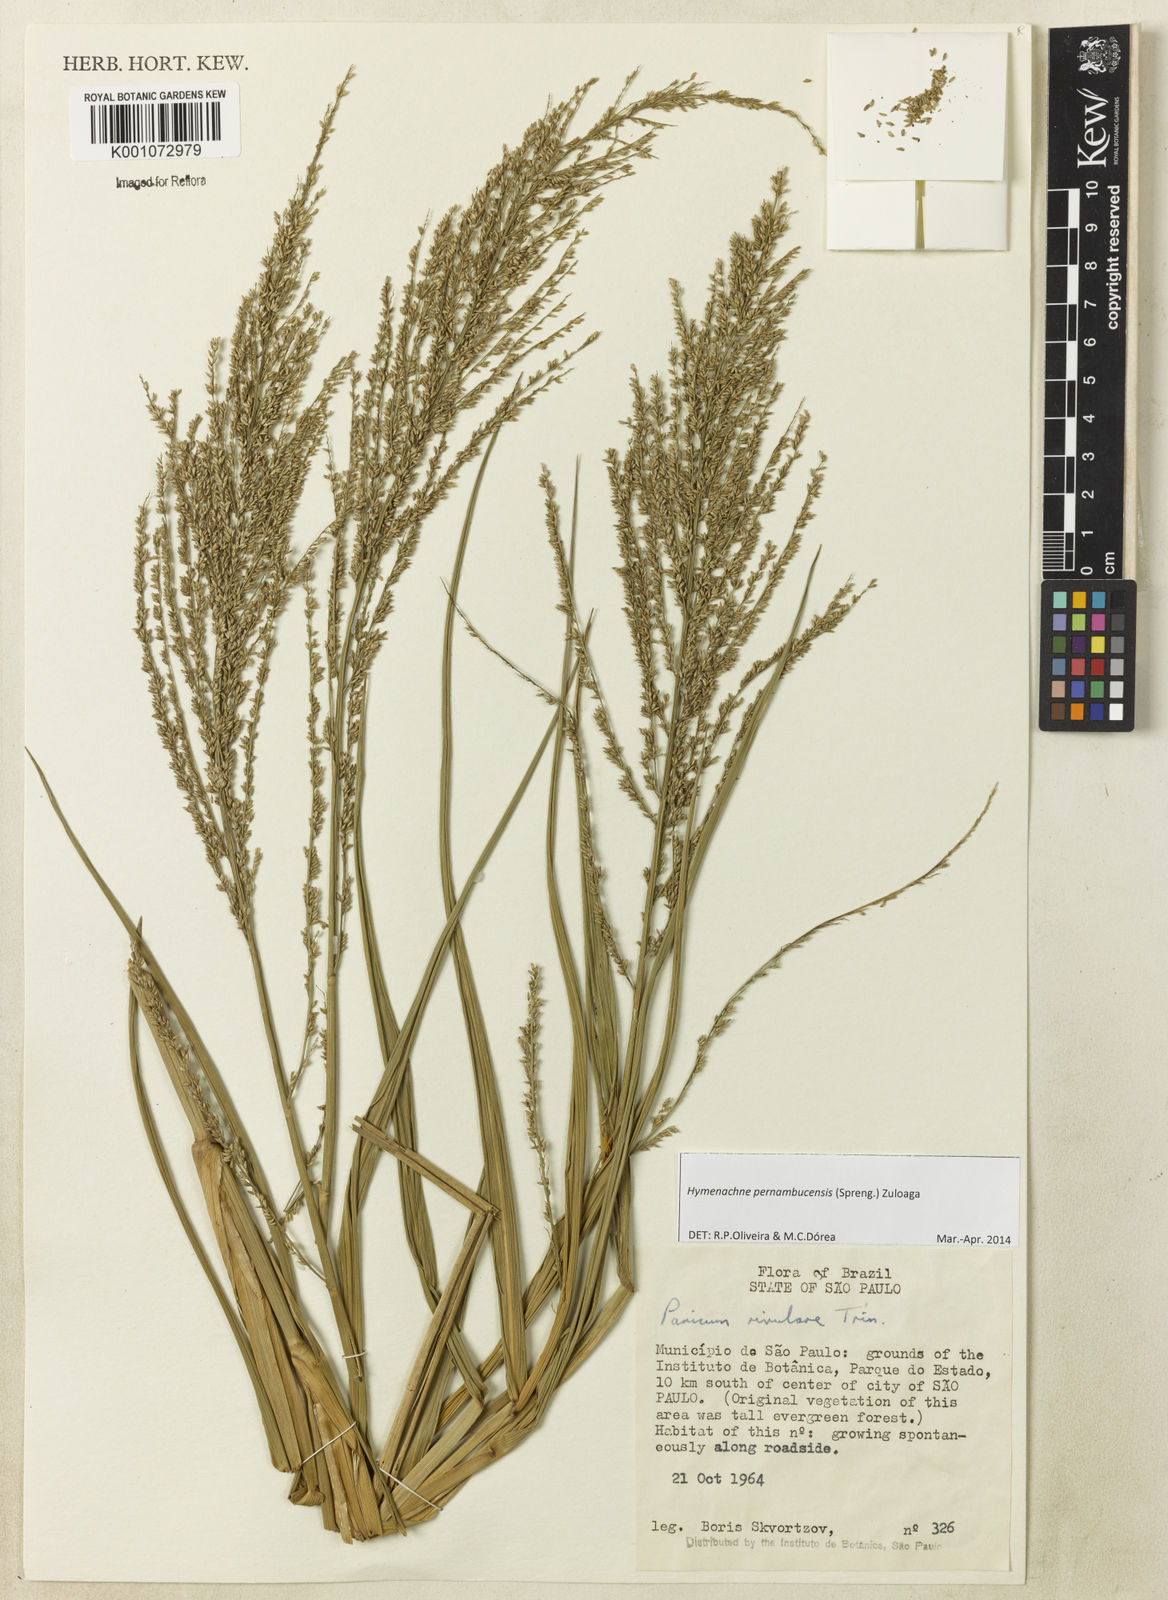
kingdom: Plantae
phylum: Tracheophyta
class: Liliopsida
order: Poales
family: Poaceae
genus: Hymenachne
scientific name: Hymenachne pernambucensis
